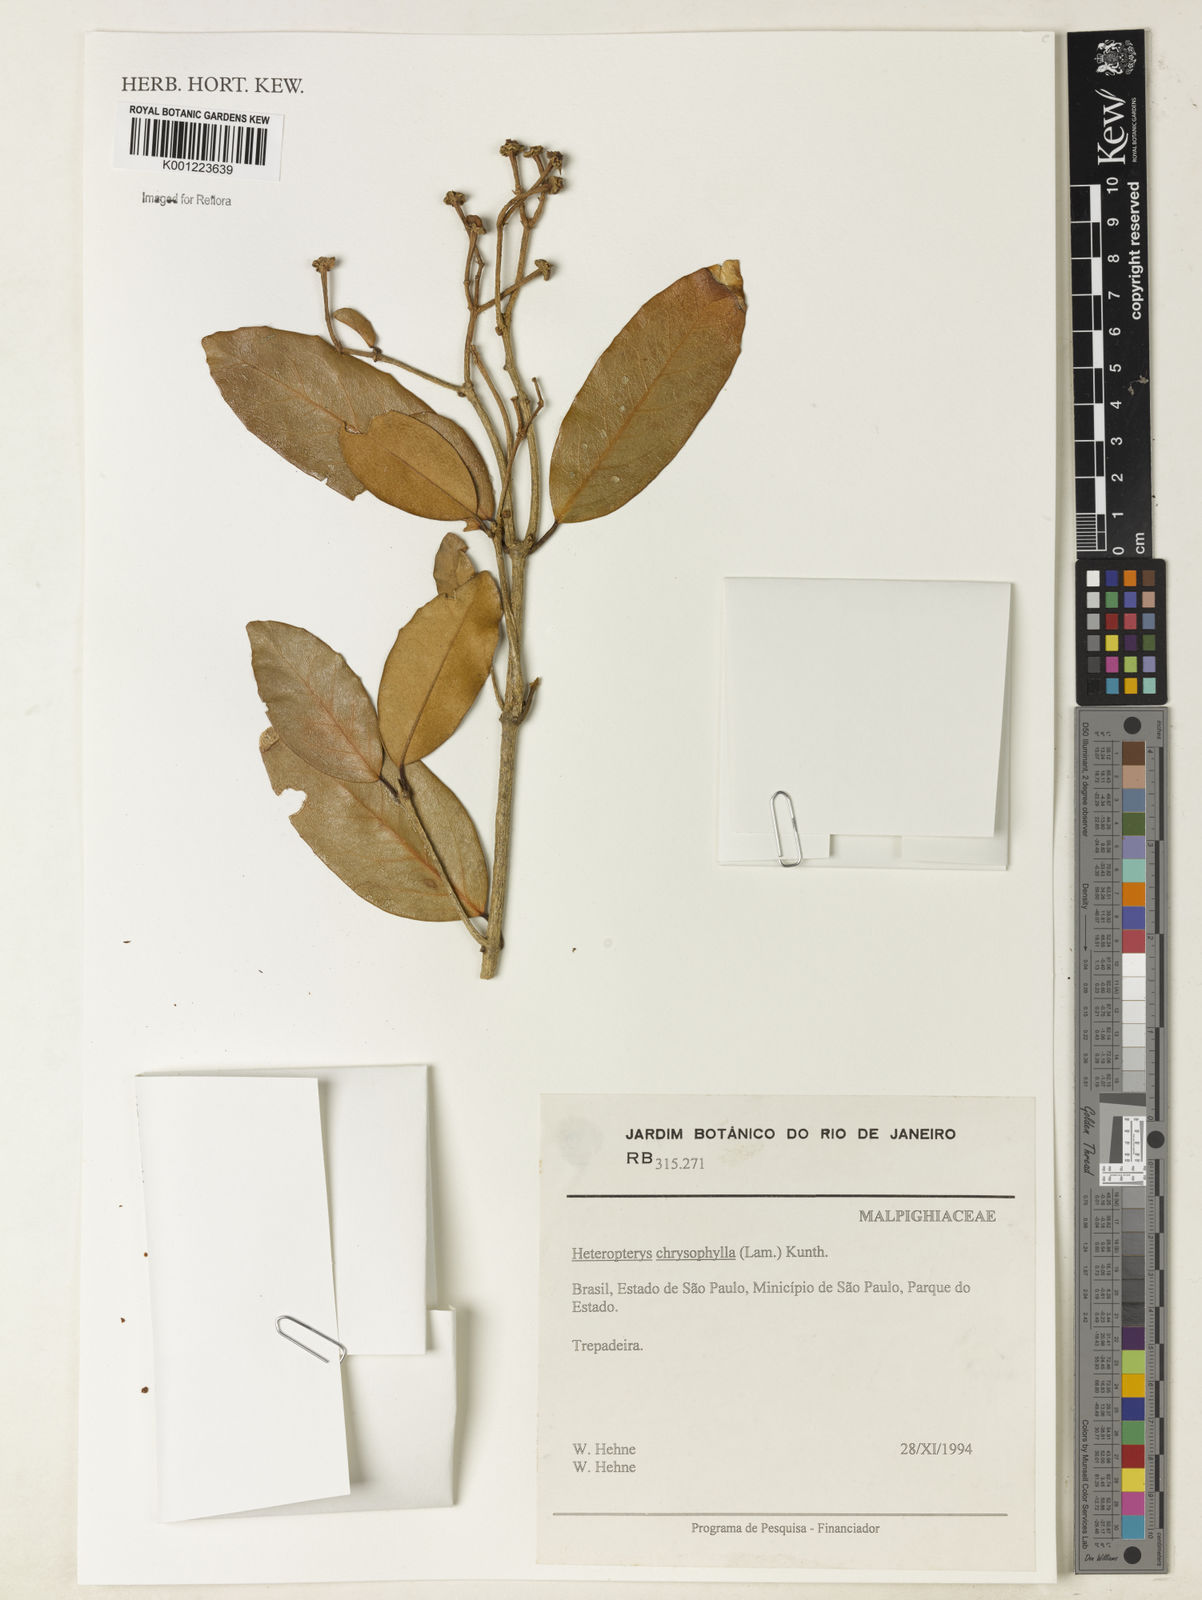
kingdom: Plantae
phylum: Tracheophyta
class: Magnoliopsida
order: Malpighiales
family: Malpighiaceae
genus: Heteropterys
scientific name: Heteropterys chrysophylla
